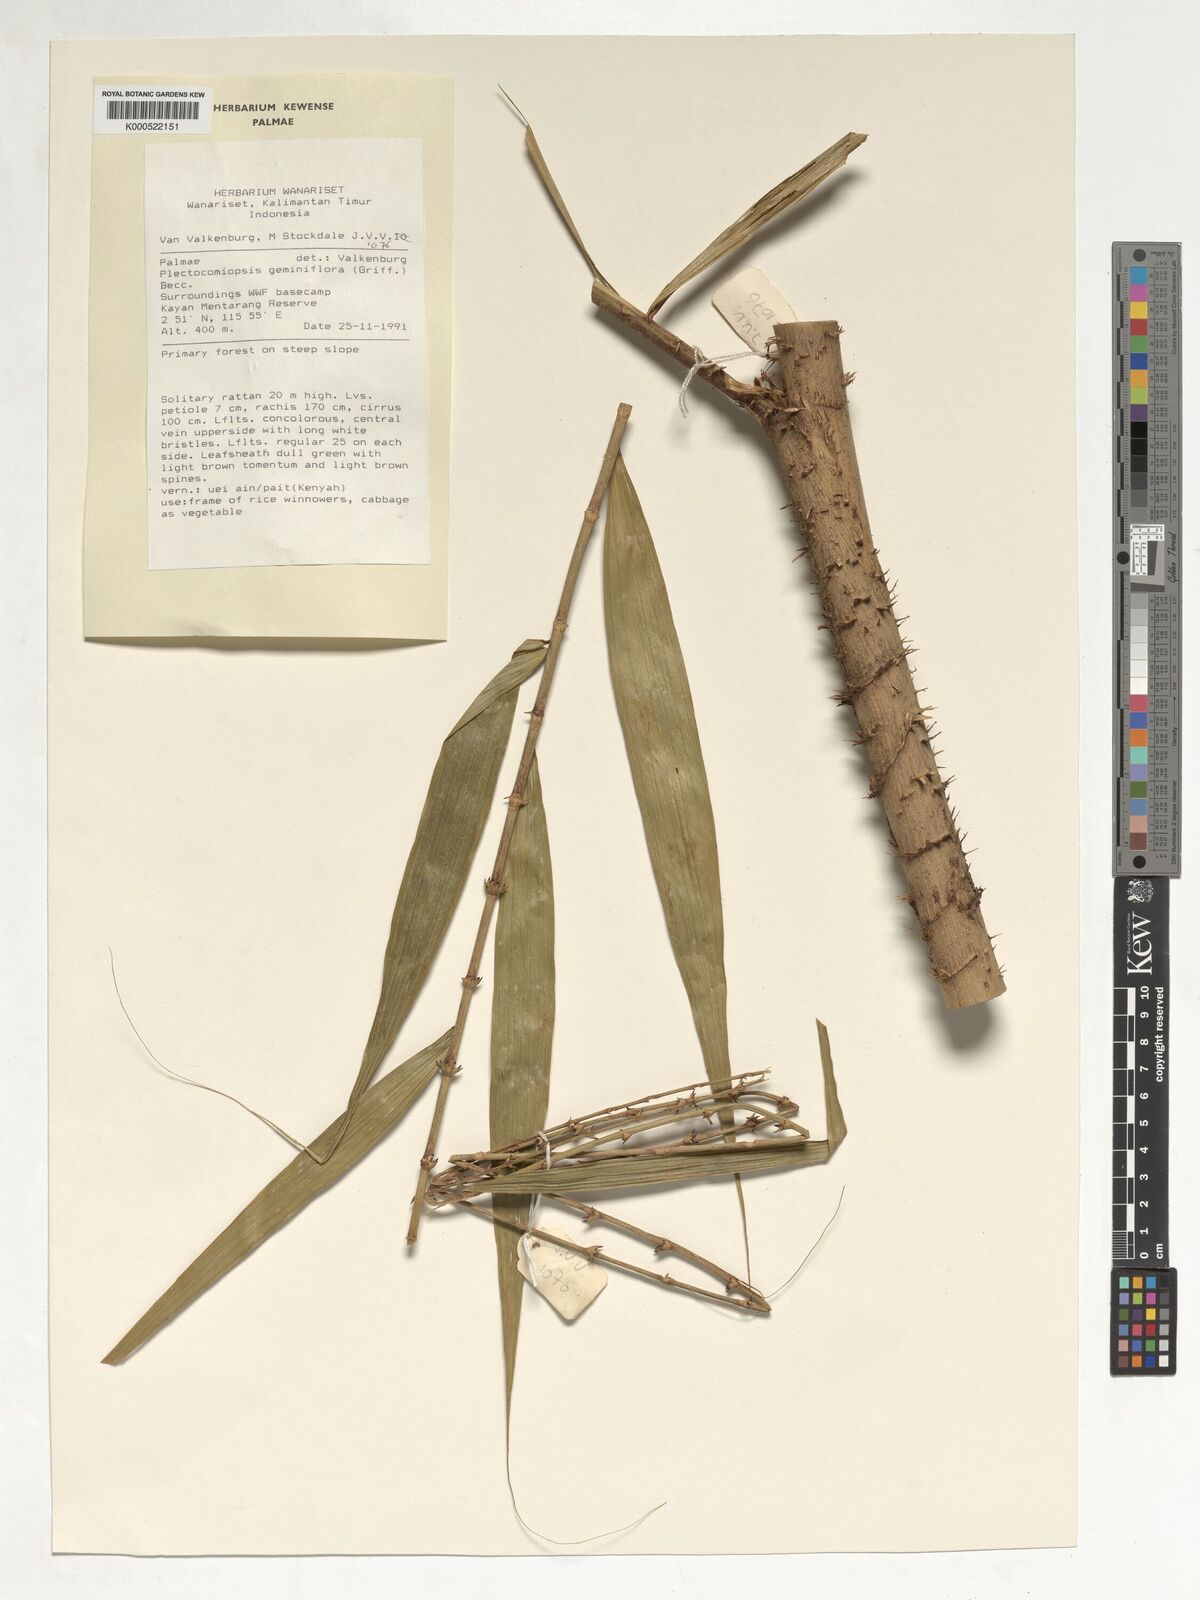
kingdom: Plantae
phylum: Tracheophyta
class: Liliopsida
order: Arecales
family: Arecaceae
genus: Plectocomiopsis
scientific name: Plectocomiopsis geminiflora
